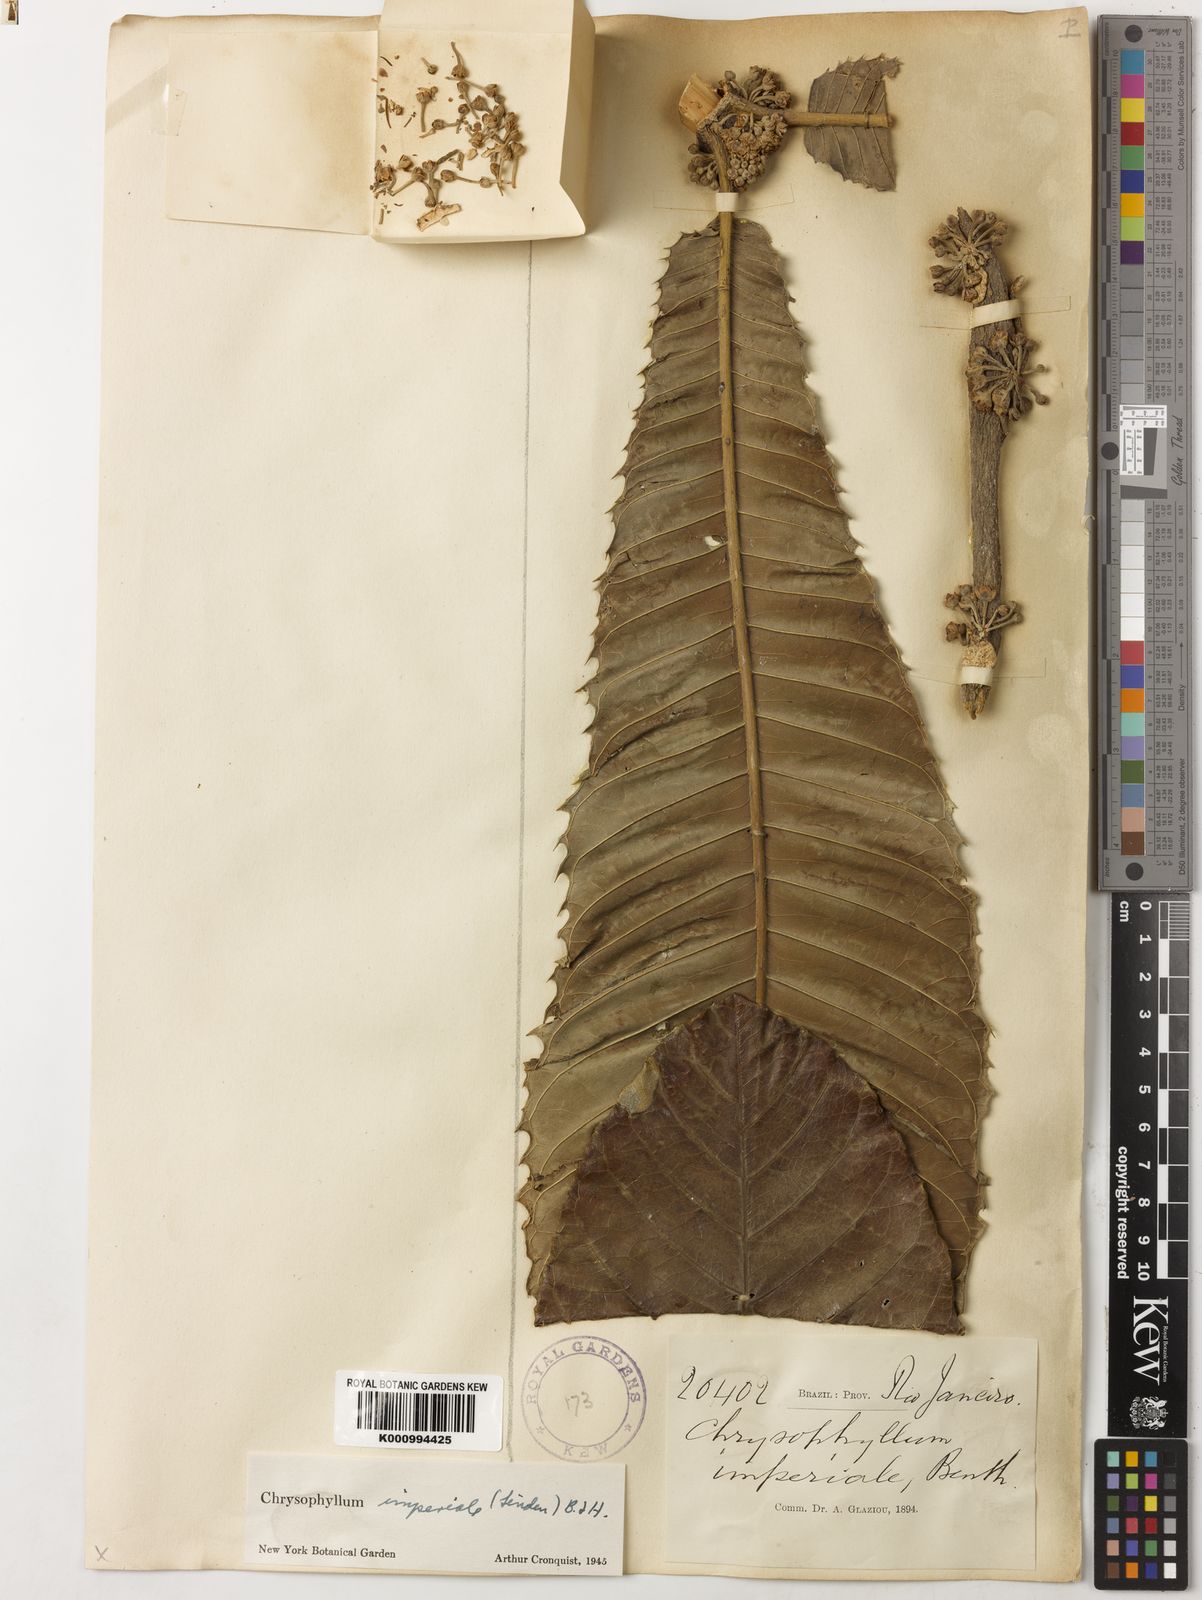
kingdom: Plantae
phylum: Tracheophyta
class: Magnoliopsida
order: Ericales
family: Sapotaceae
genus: Chrysophyllum
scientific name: Chrysophyllum
